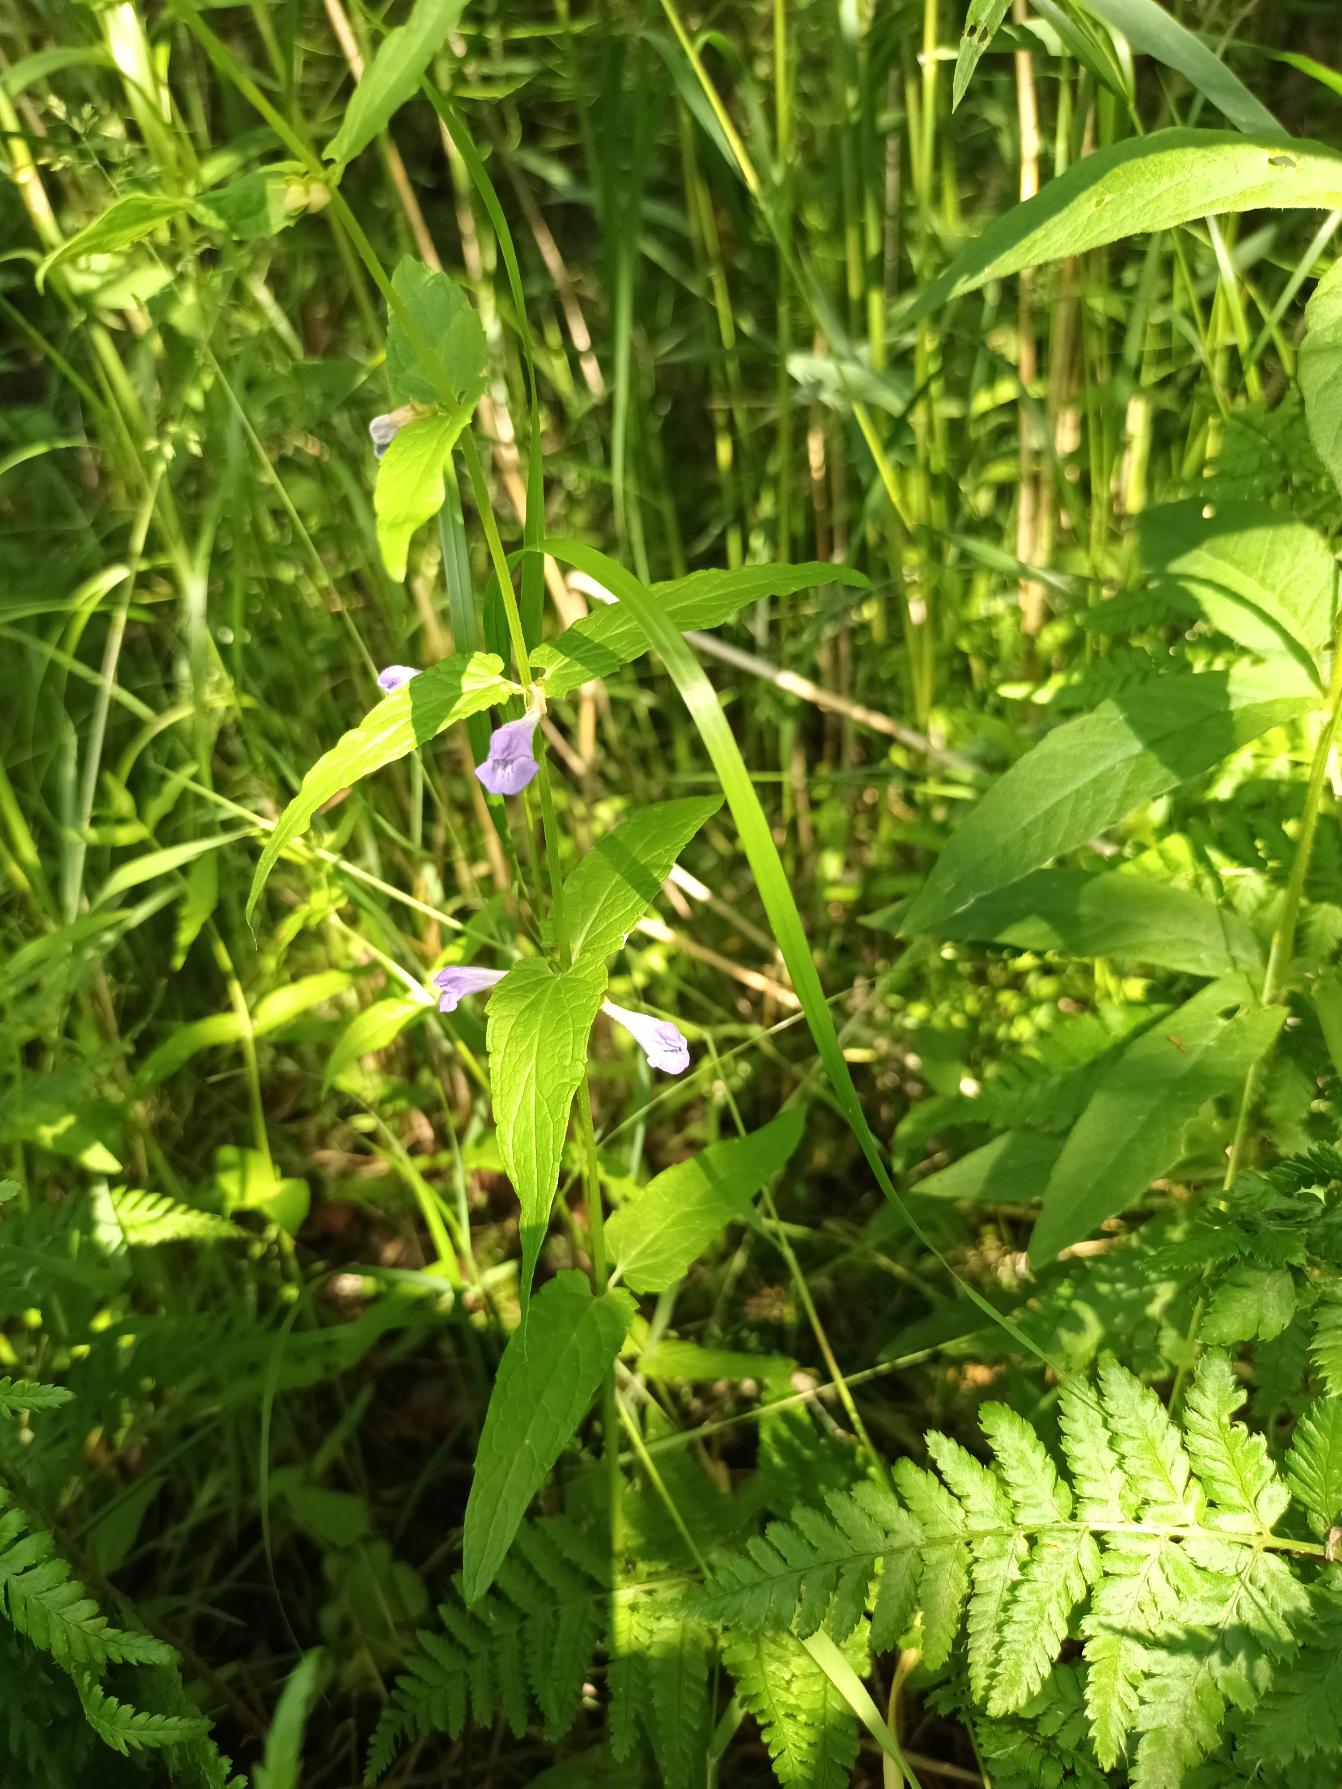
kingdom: Plantae
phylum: Tracheophyta
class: Magnoliopsida
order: Lamiales
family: Lamiaceae
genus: Scutellaria
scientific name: Scutellaria galericulata
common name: Almindelig skjolddrager
